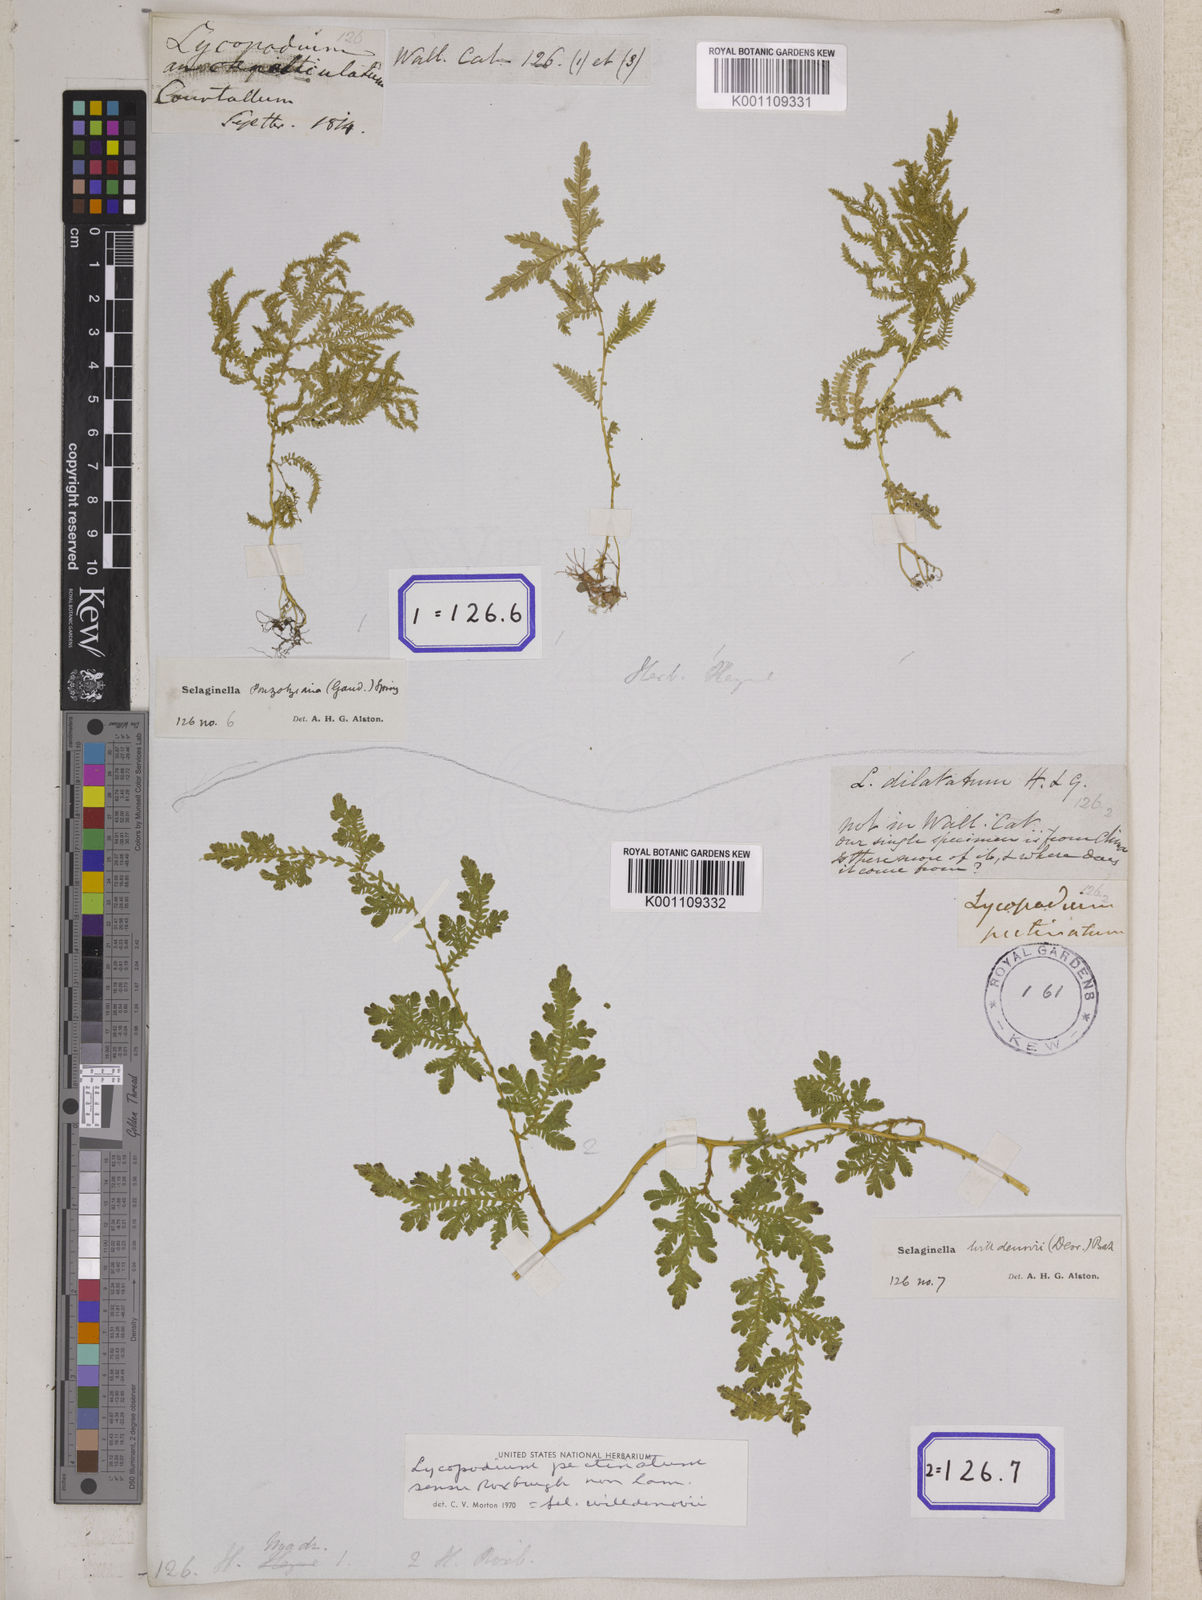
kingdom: Plantae
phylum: Tracheophyta
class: Lycopodiopsida
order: Selaginellales
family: Selaginellaceae
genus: Selaginella
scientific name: Selaginella semicordata
